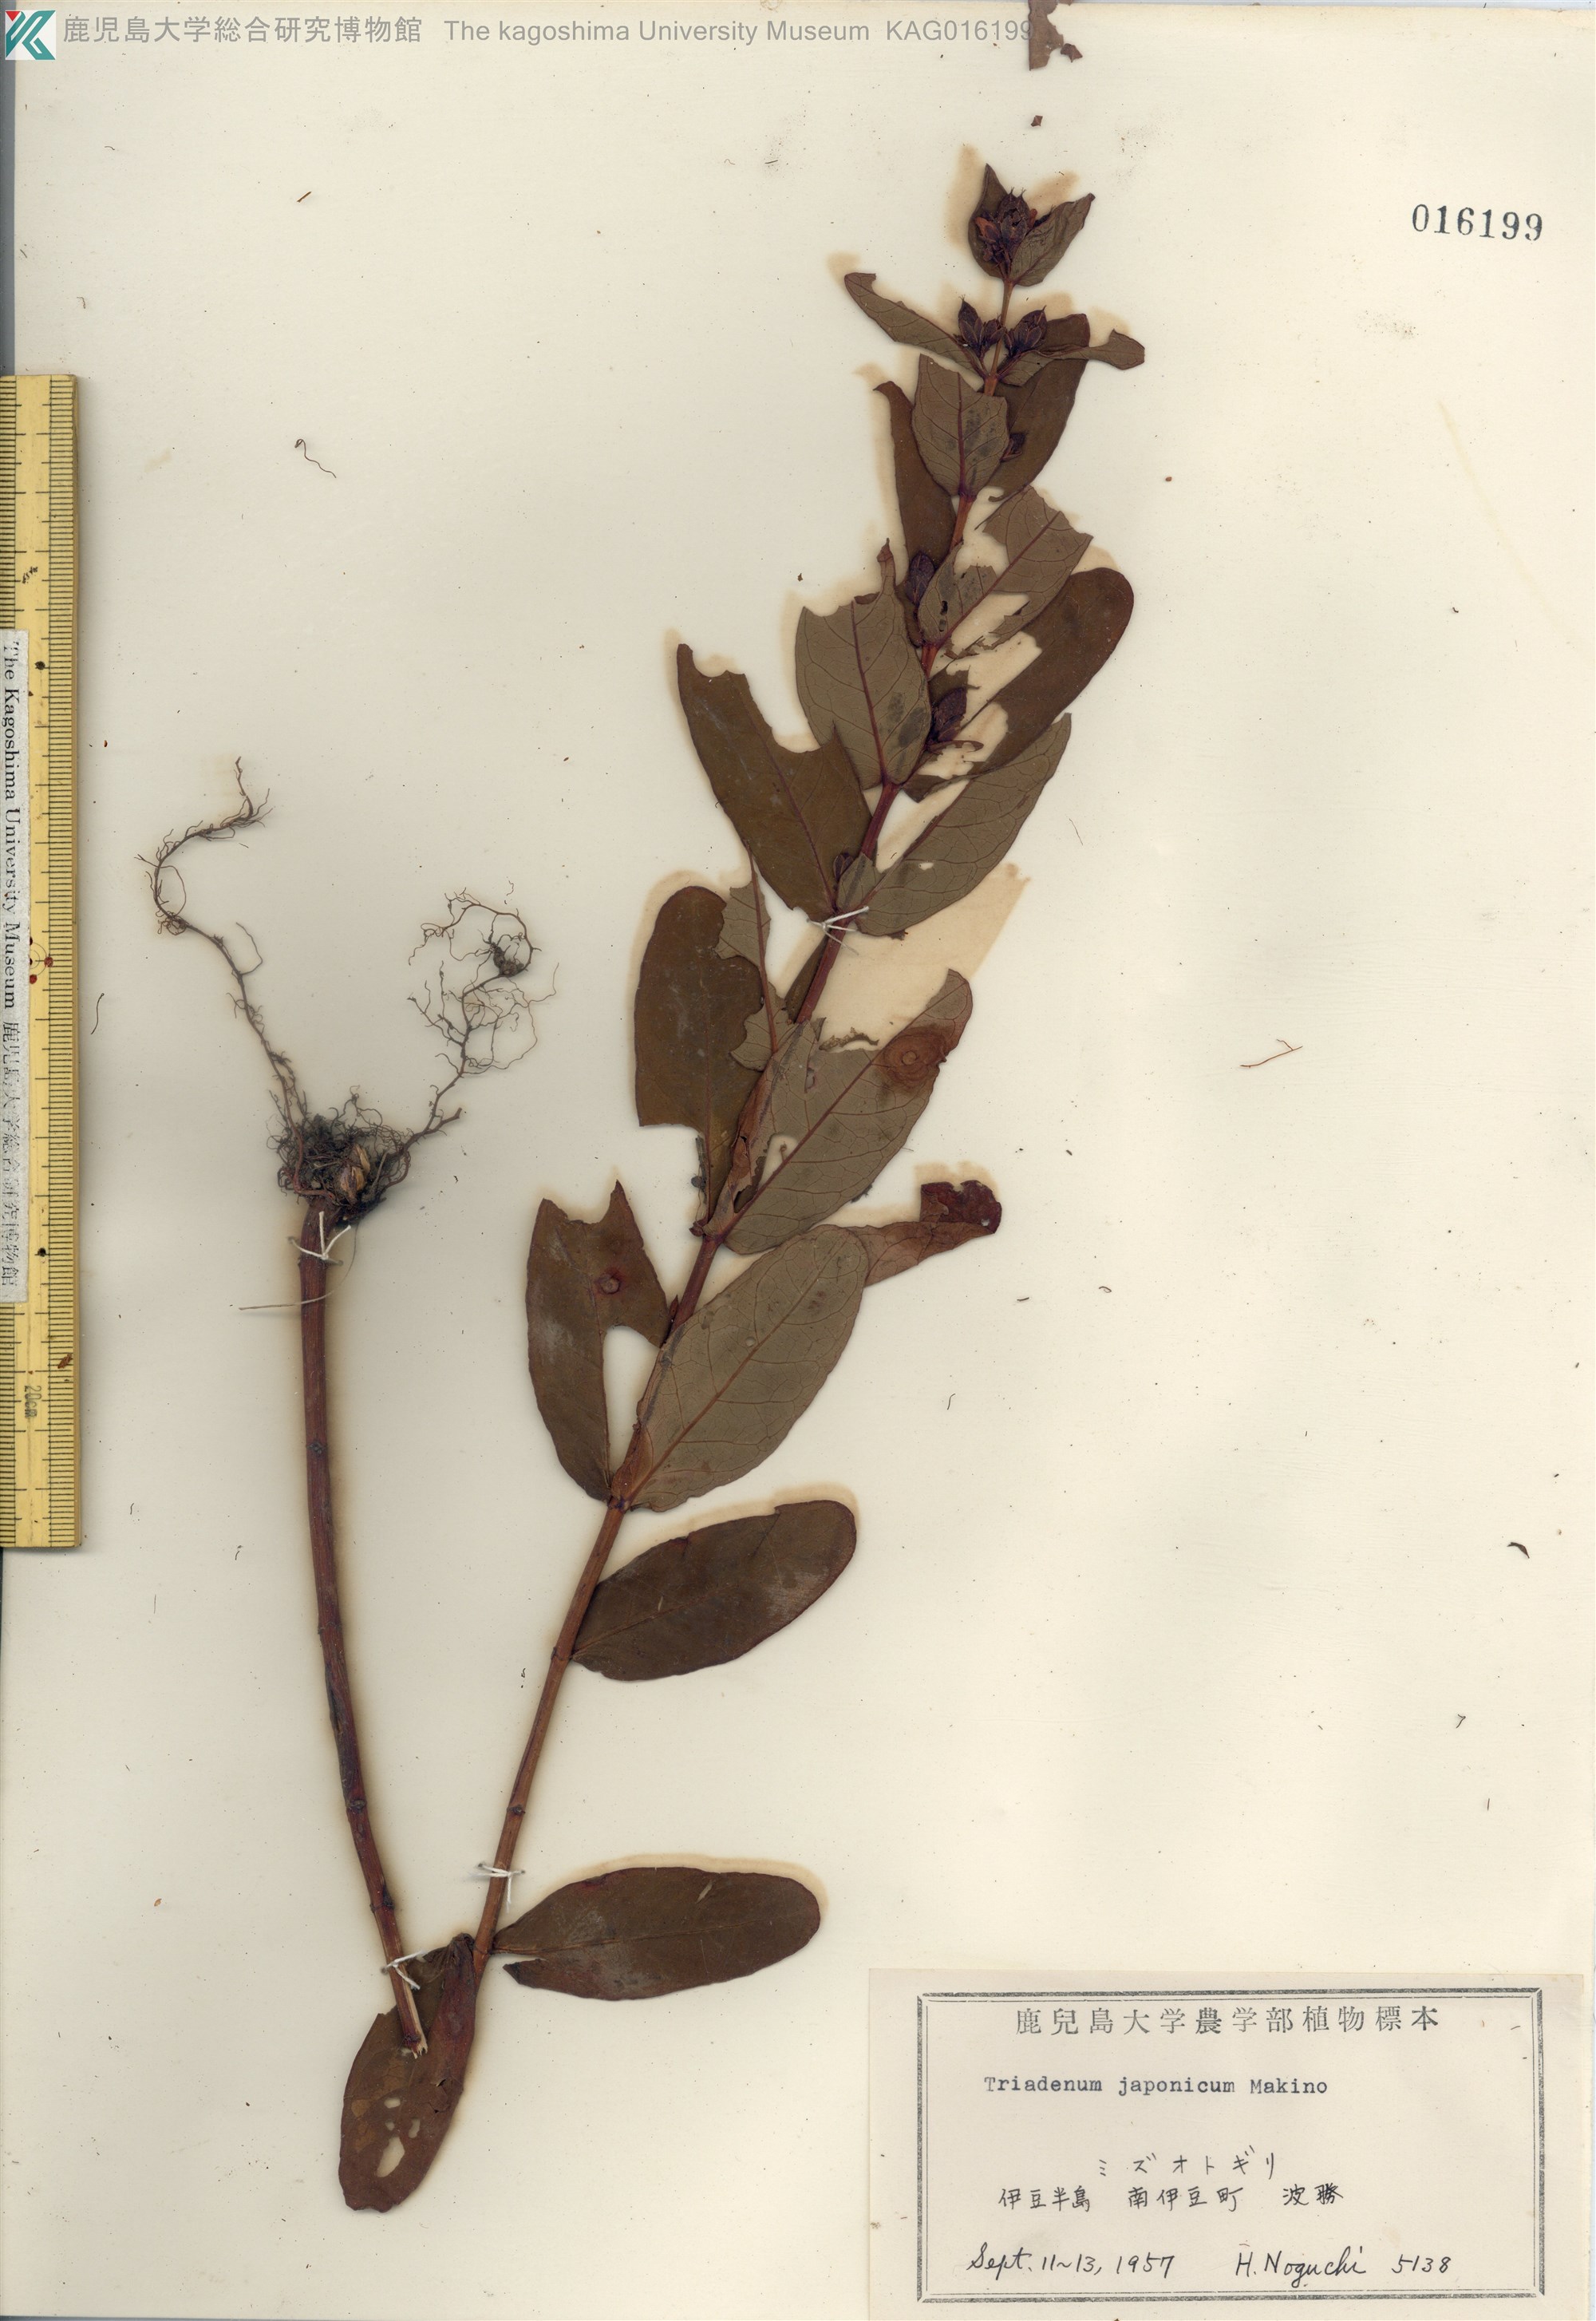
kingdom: Plantae
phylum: Tracheophyta
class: Magnoliopsida
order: Malpighiales
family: Hypericaceae
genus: Triadenum
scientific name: Triadenum japonicum
